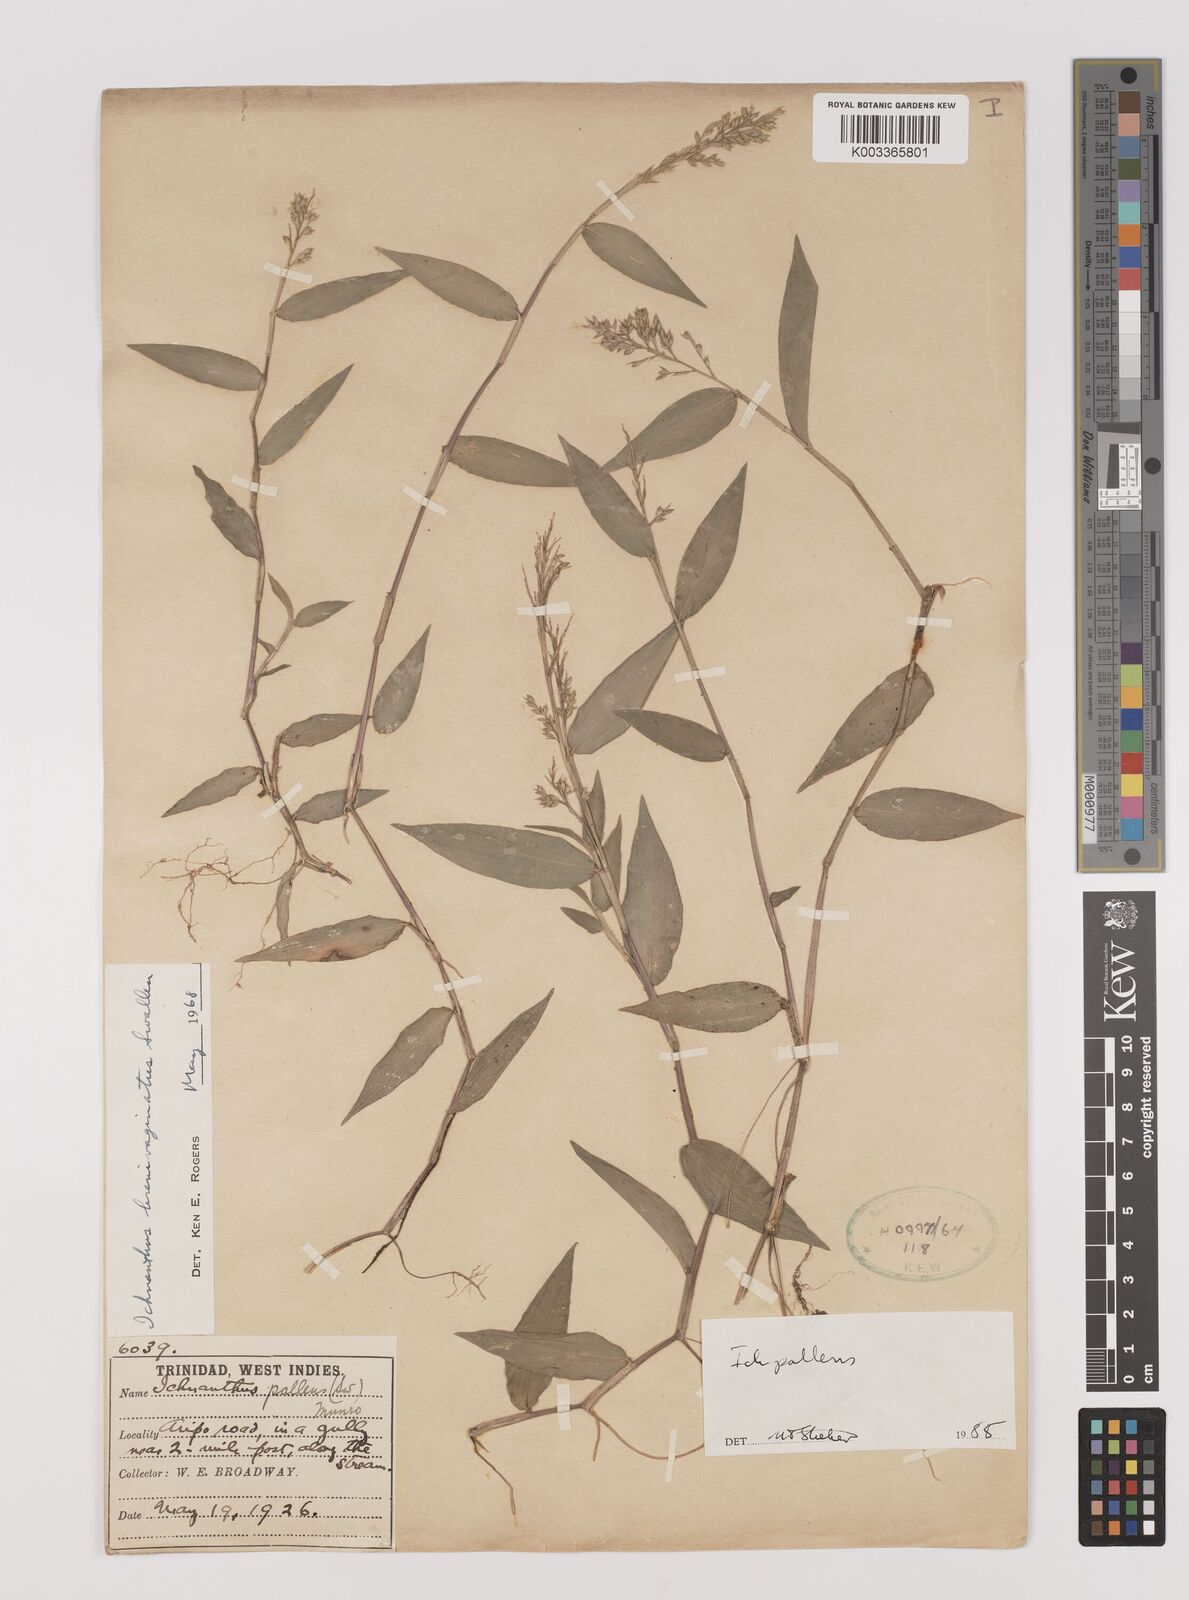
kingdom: Plantae
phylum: Tracheophyta
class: Liliopsida
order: Poales
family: Poaceae
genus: Ichnanthus
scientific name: Ichnanthus pallens
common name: Water grass
